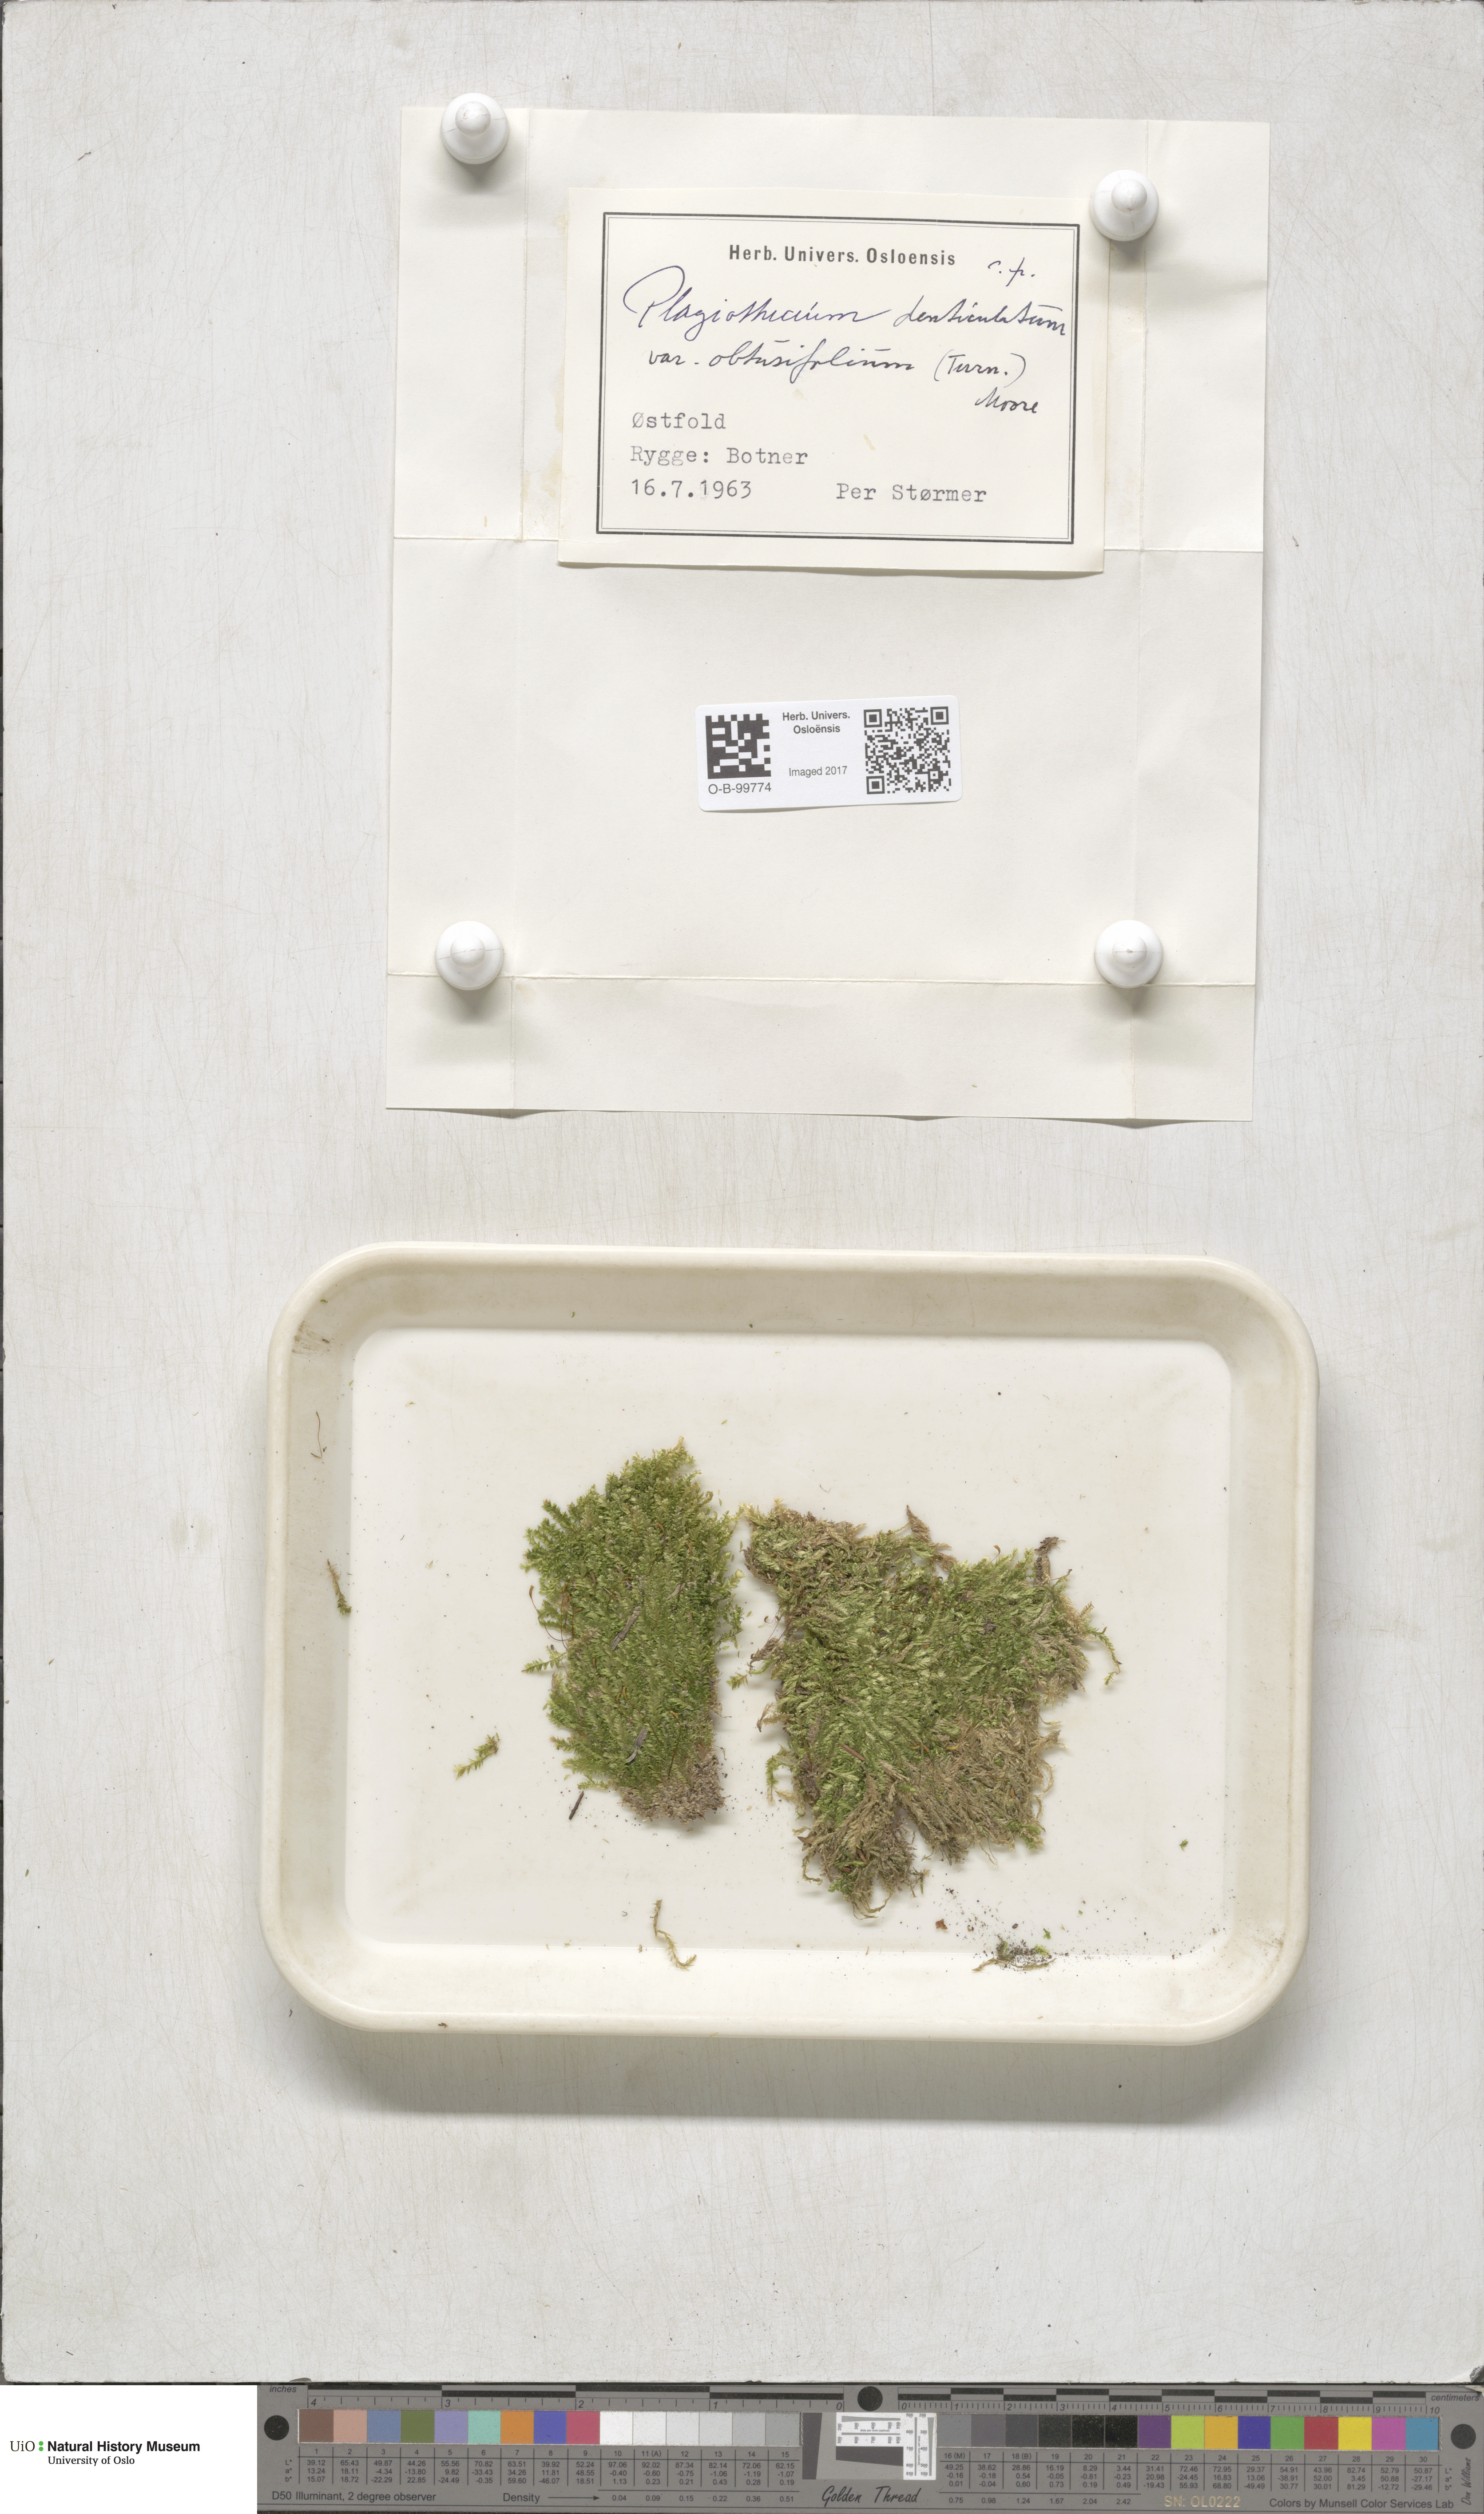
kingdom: Plantae
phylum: Bryophyta
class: Bryopsida
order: Hypnales
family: Plagiotheciaceae
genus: Plagiothecium
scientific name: Plagiothecium denticulatum
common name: Dented silk moss
